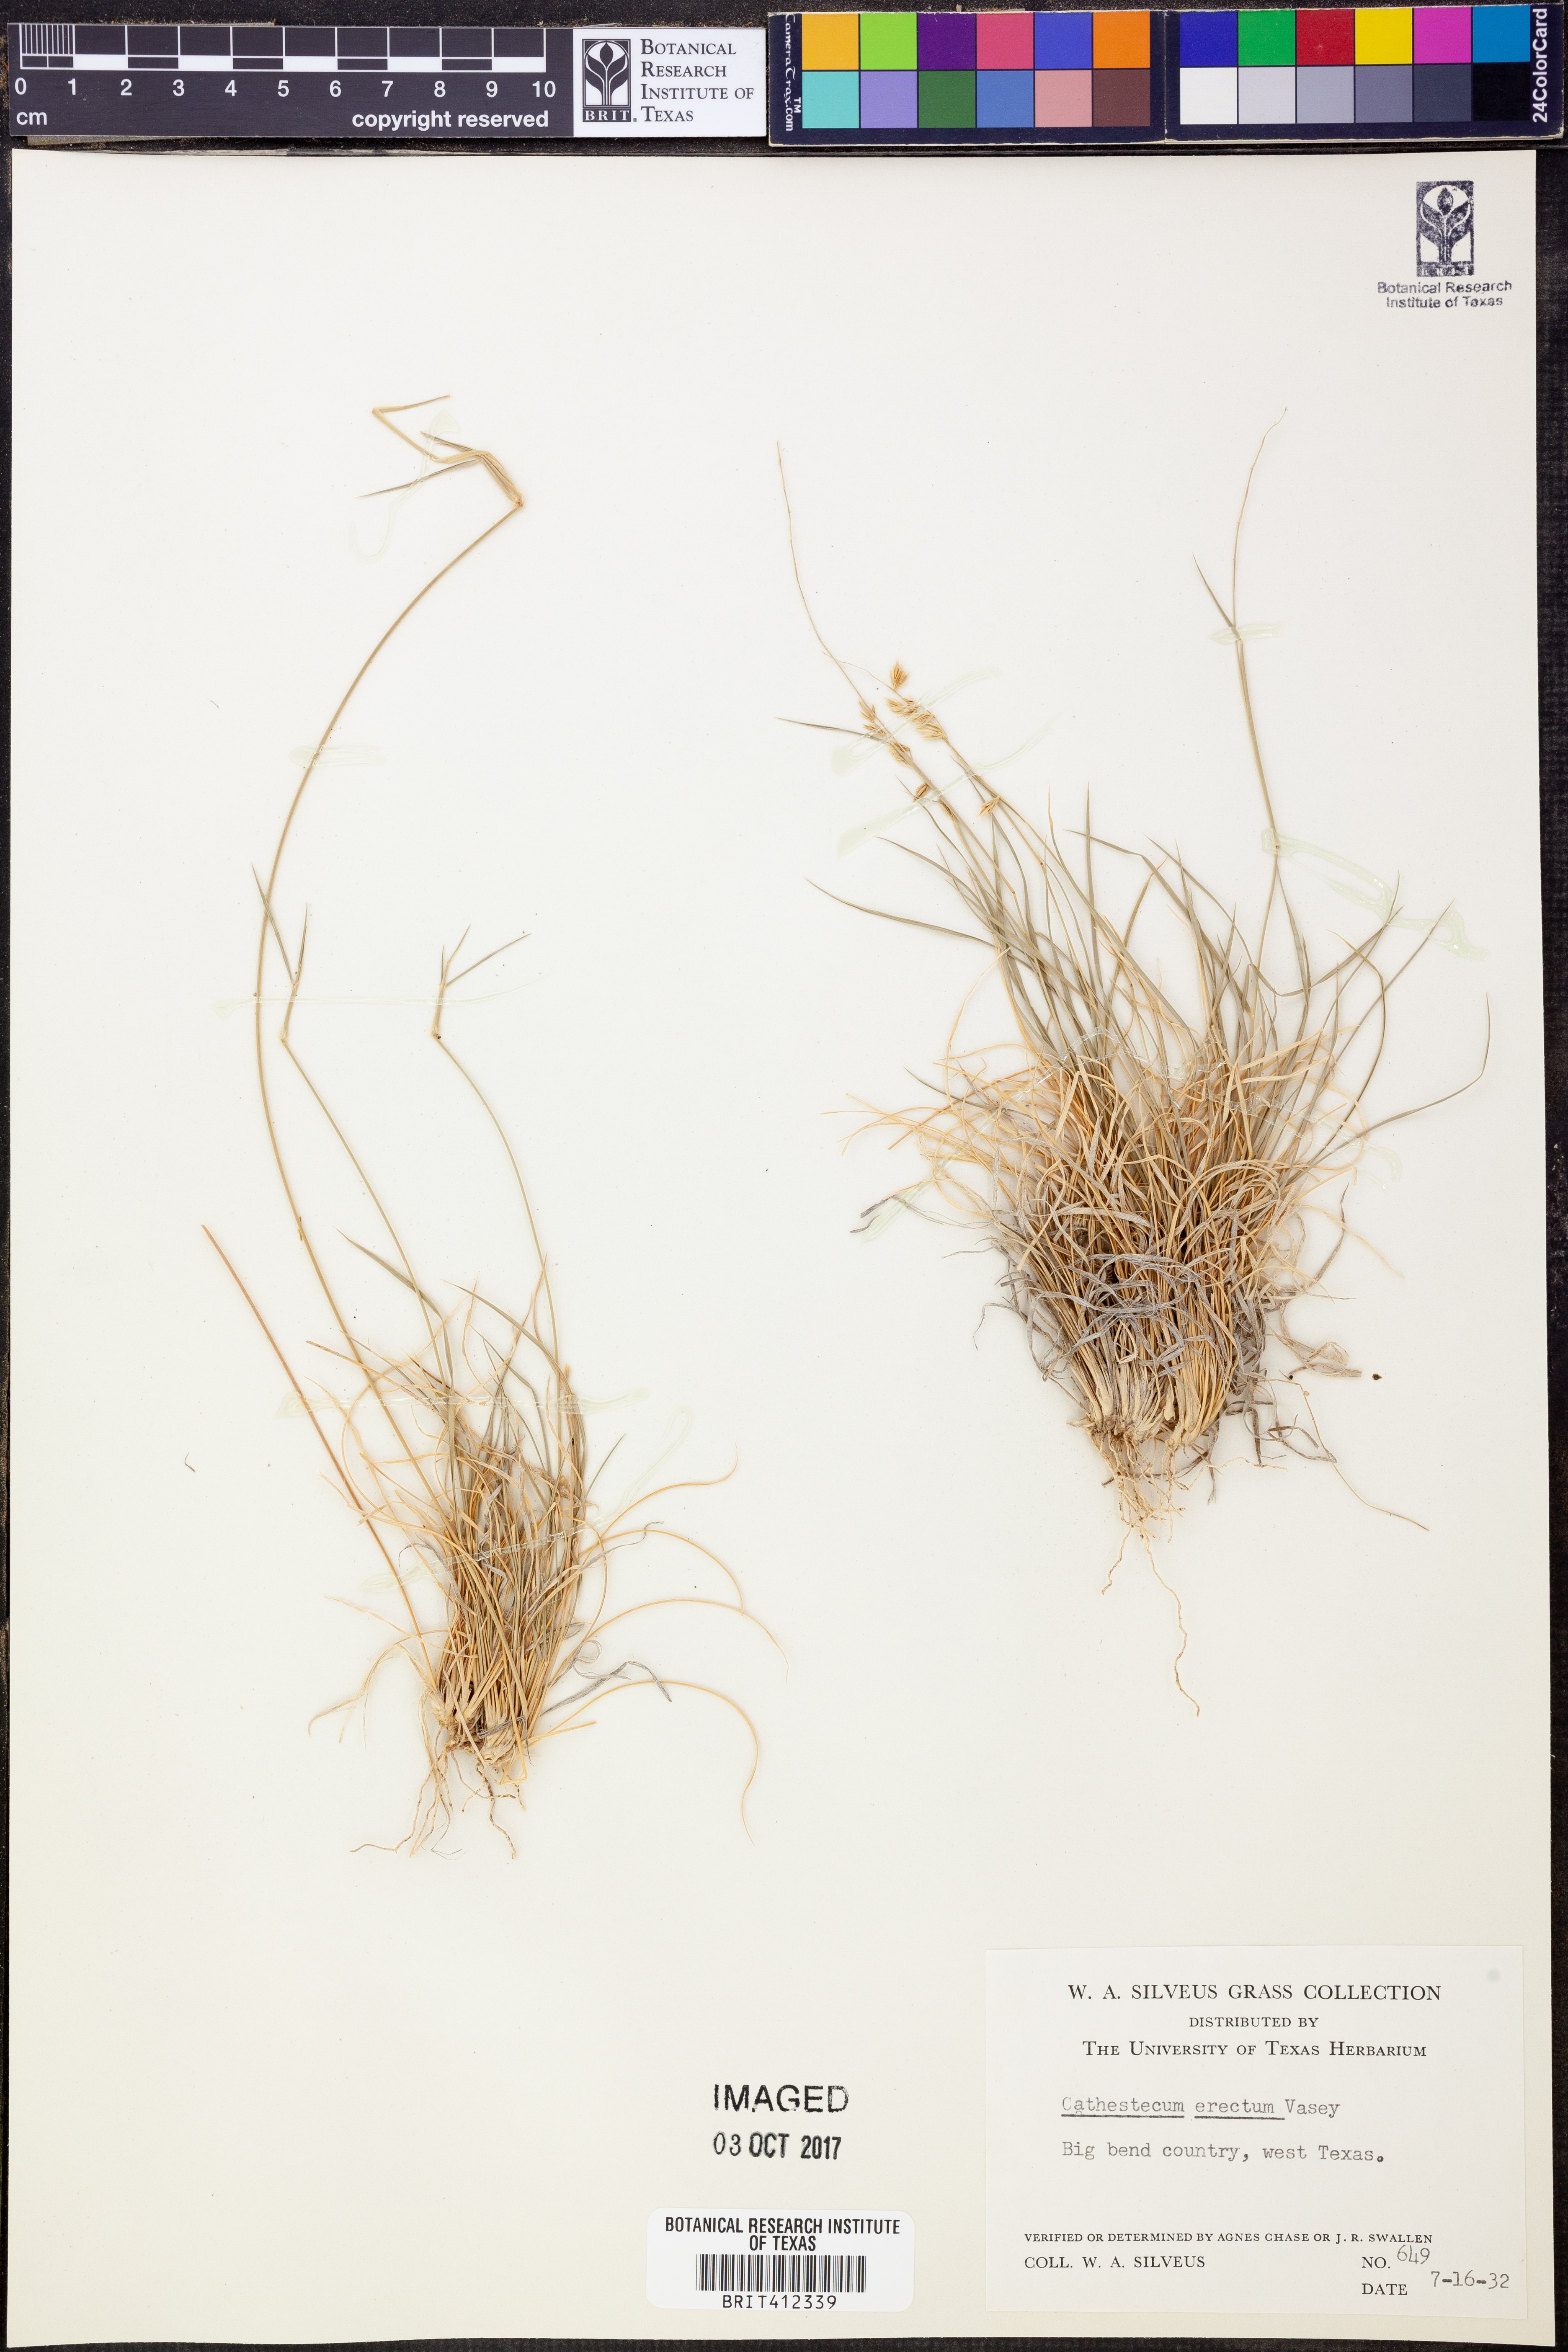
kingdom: Plantae
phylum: Tracheophyta
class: Liliopsida
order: Poales
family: Poaceae
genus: Bouteloua
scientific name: Bouteloua erecta
